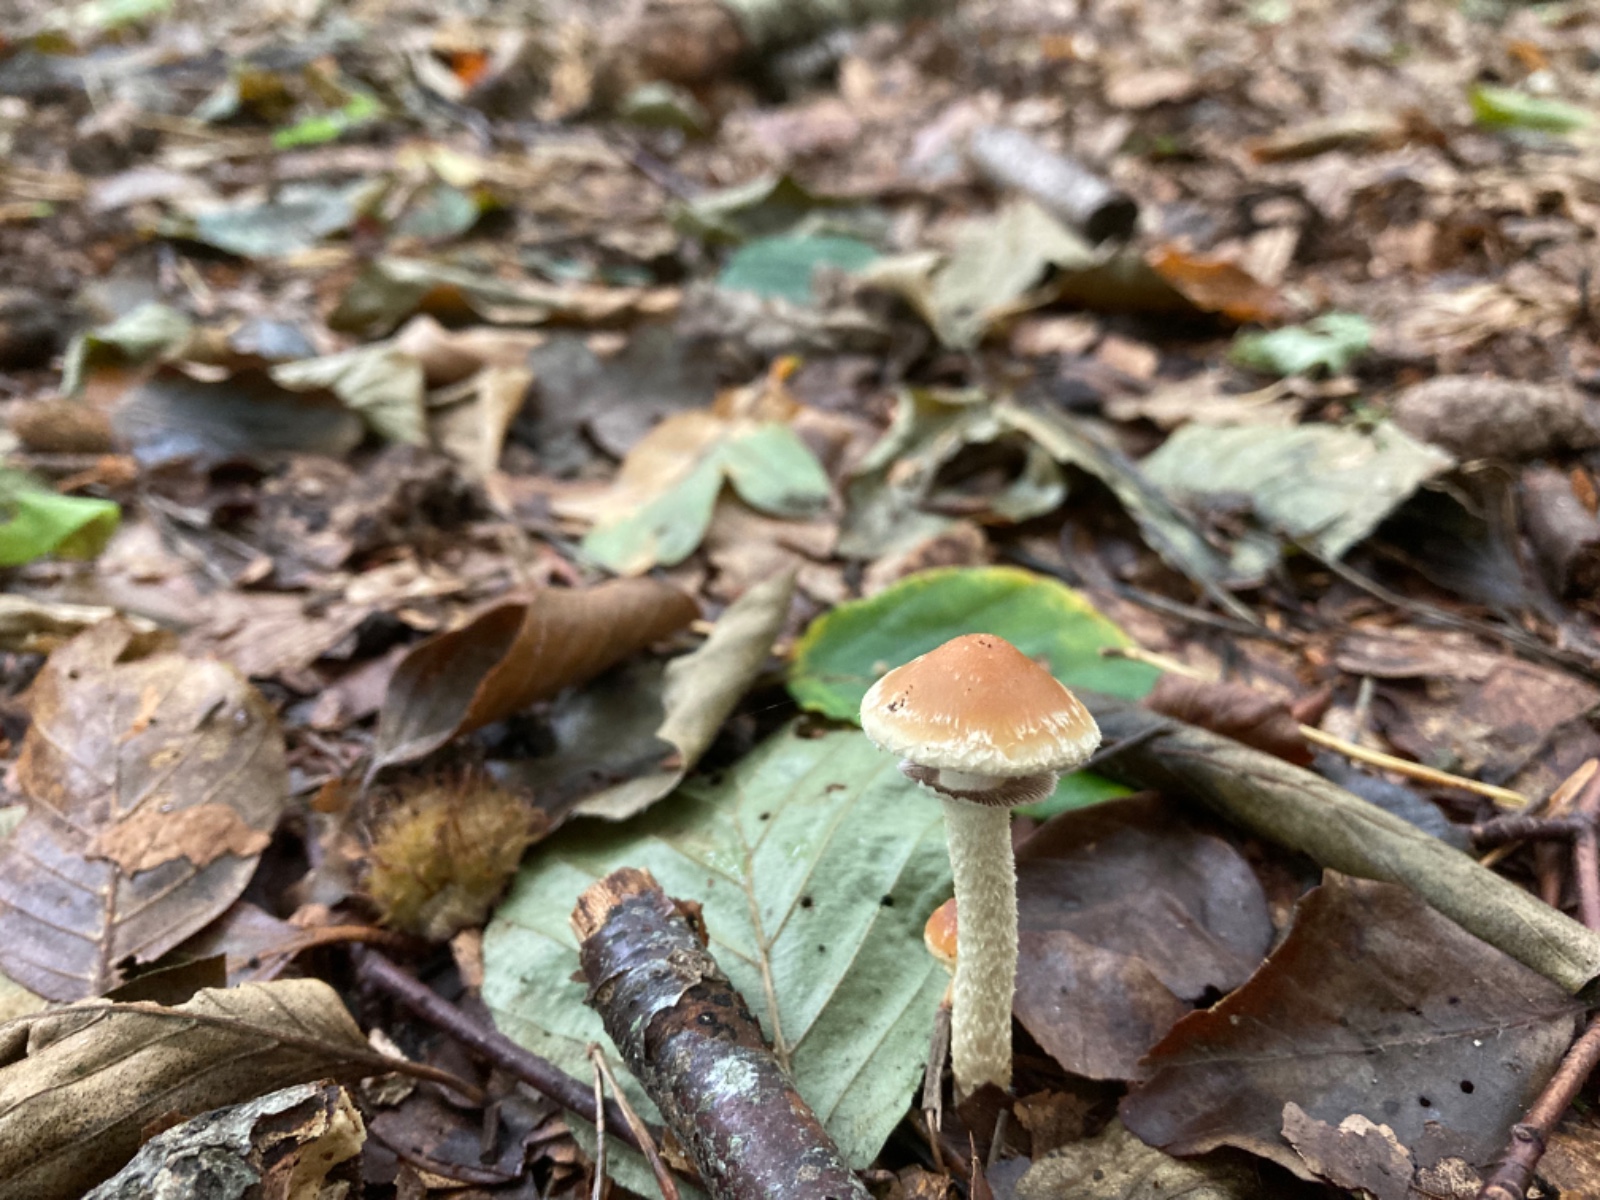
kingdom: Fungi
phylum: Basidiomycota
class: Agaricomycetes
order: Agaricales
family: Strophariaceae
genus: Leratiomyces
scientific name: Leratiomyces squamosus
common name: skællet bredblad
